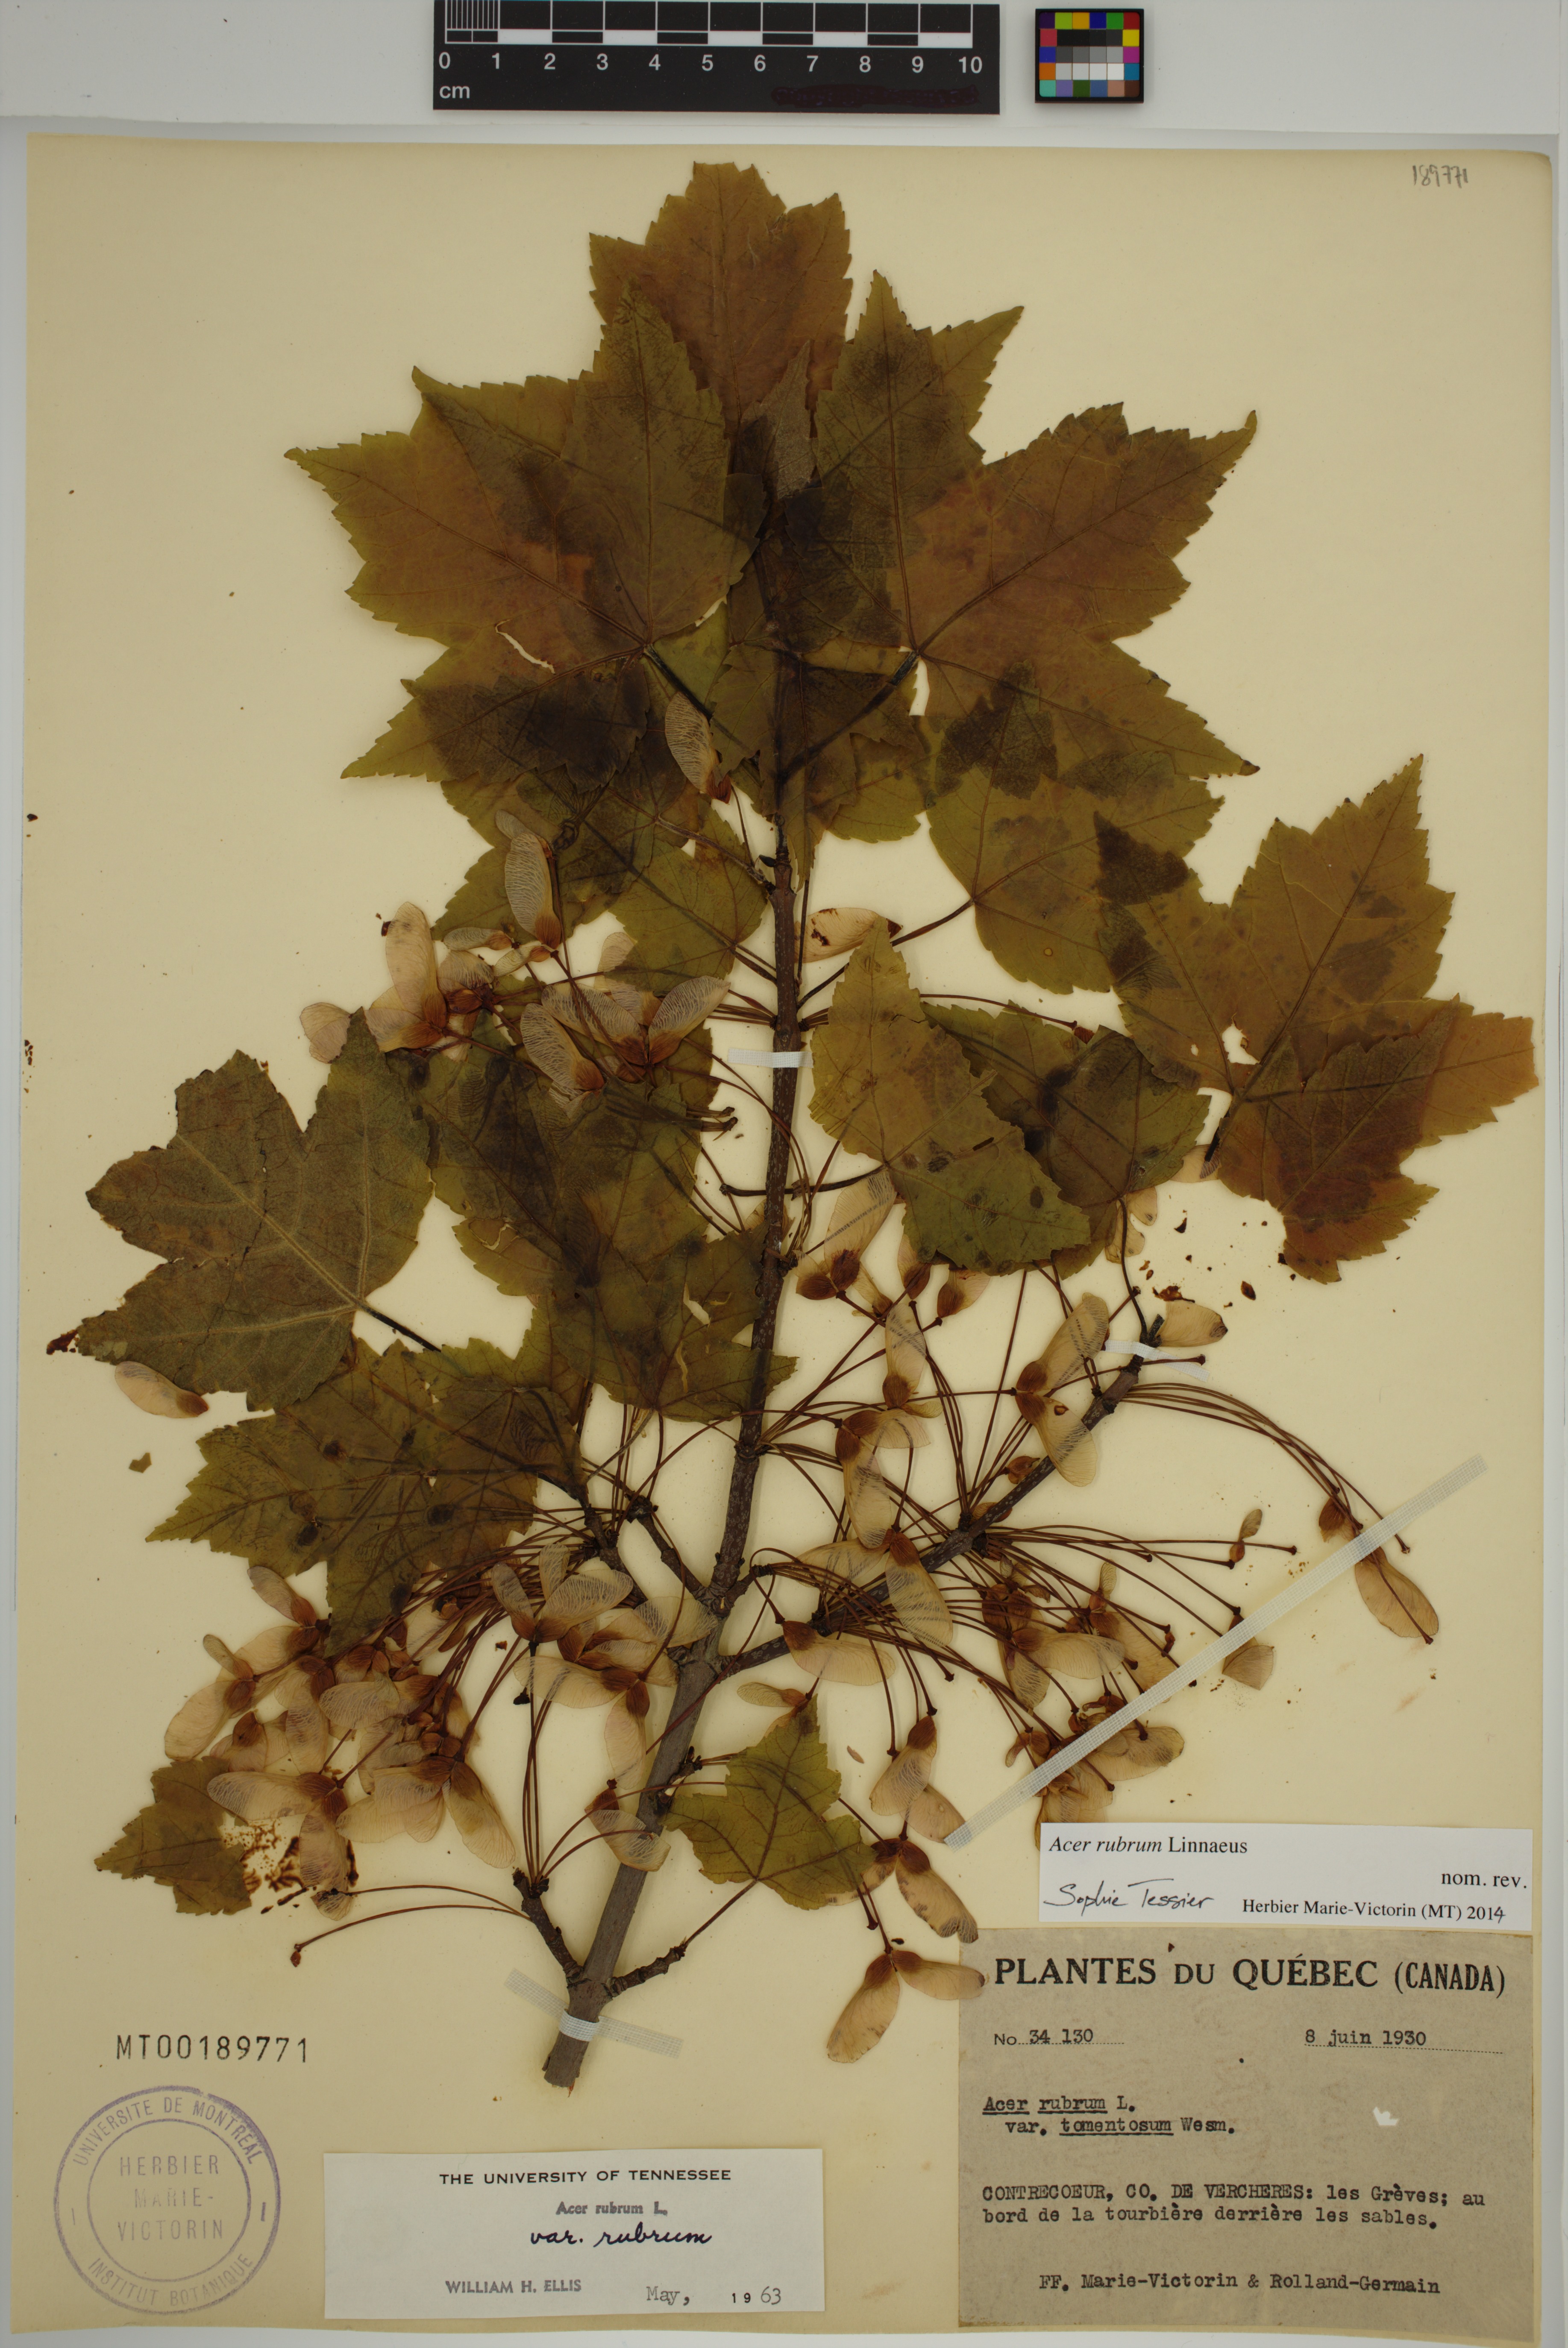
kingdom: Plantae
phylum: Tracheophyta
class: Magnoliopsida
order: Sapindales
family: Sapindaceae
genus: Acer
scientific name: Acer rubrum
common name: Red maple
